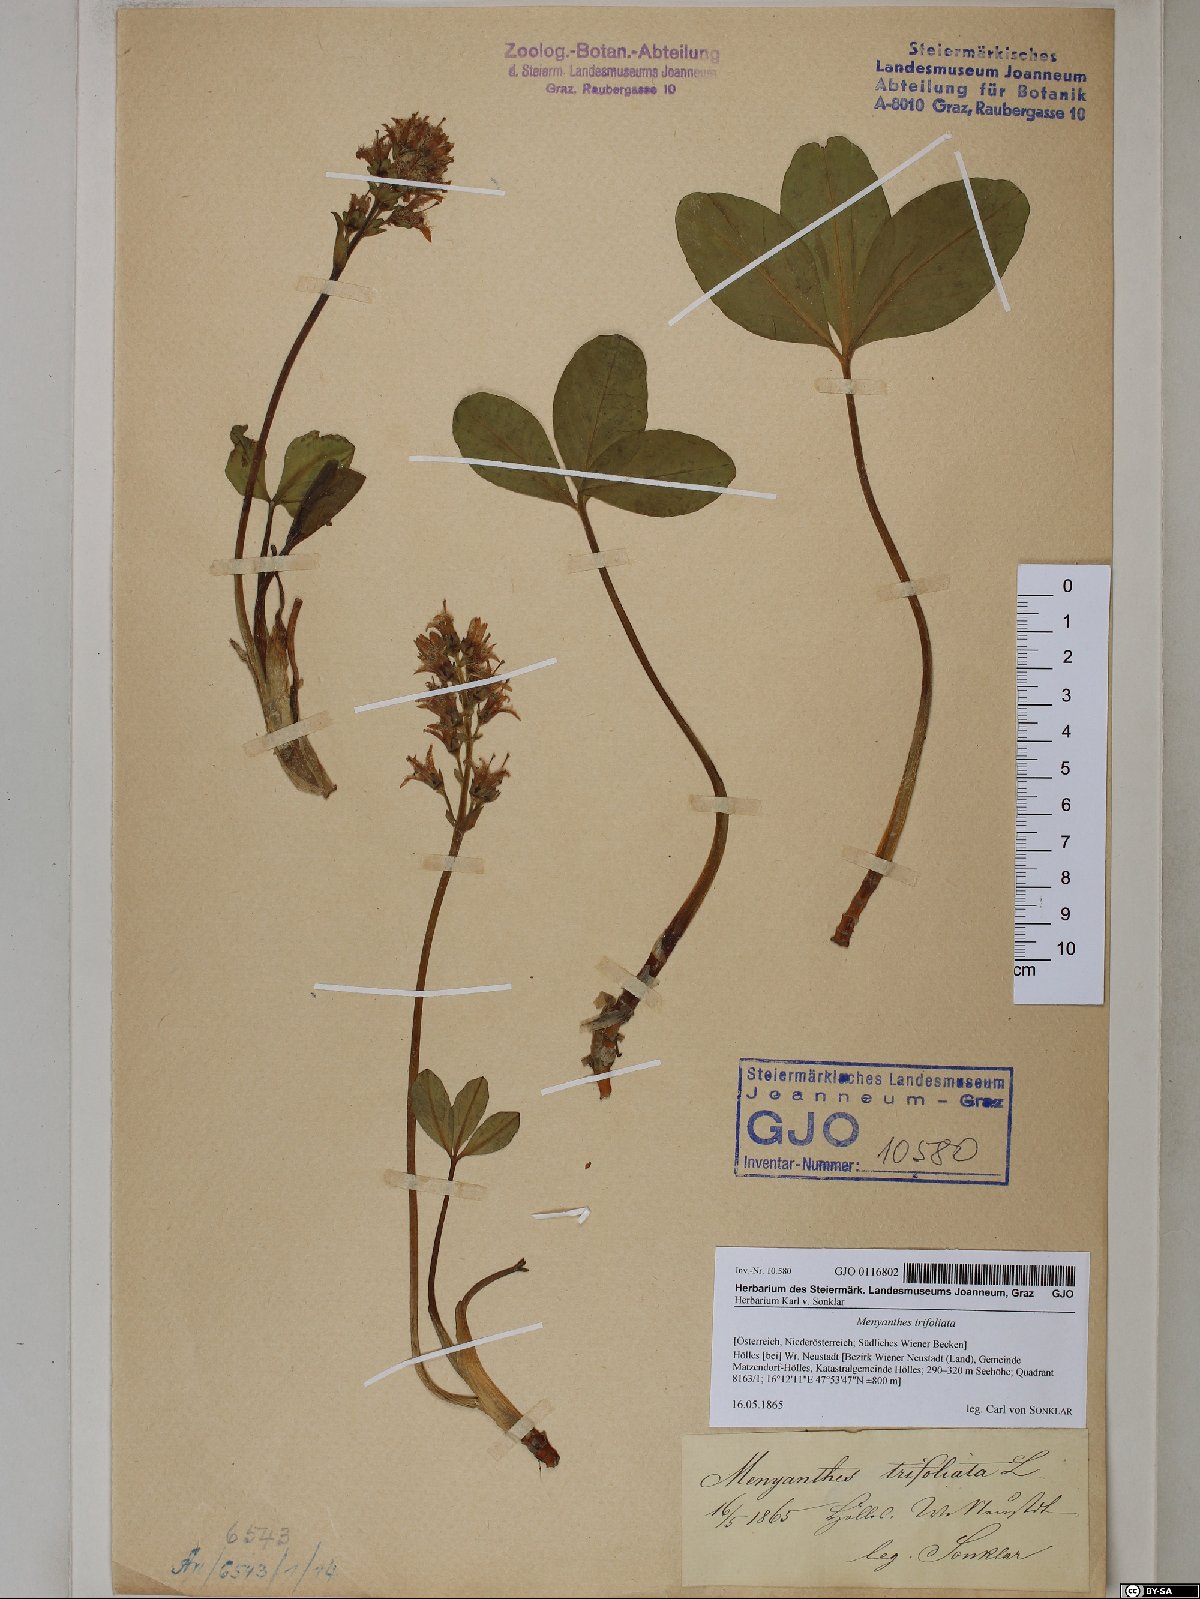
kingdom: Plantae
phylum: Tracheophyta
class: Magnoliopsida
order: Asterales
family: Menyanthaceae
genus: Menyanthes
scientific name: Menyanthes trifoliata
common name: Bogbean
